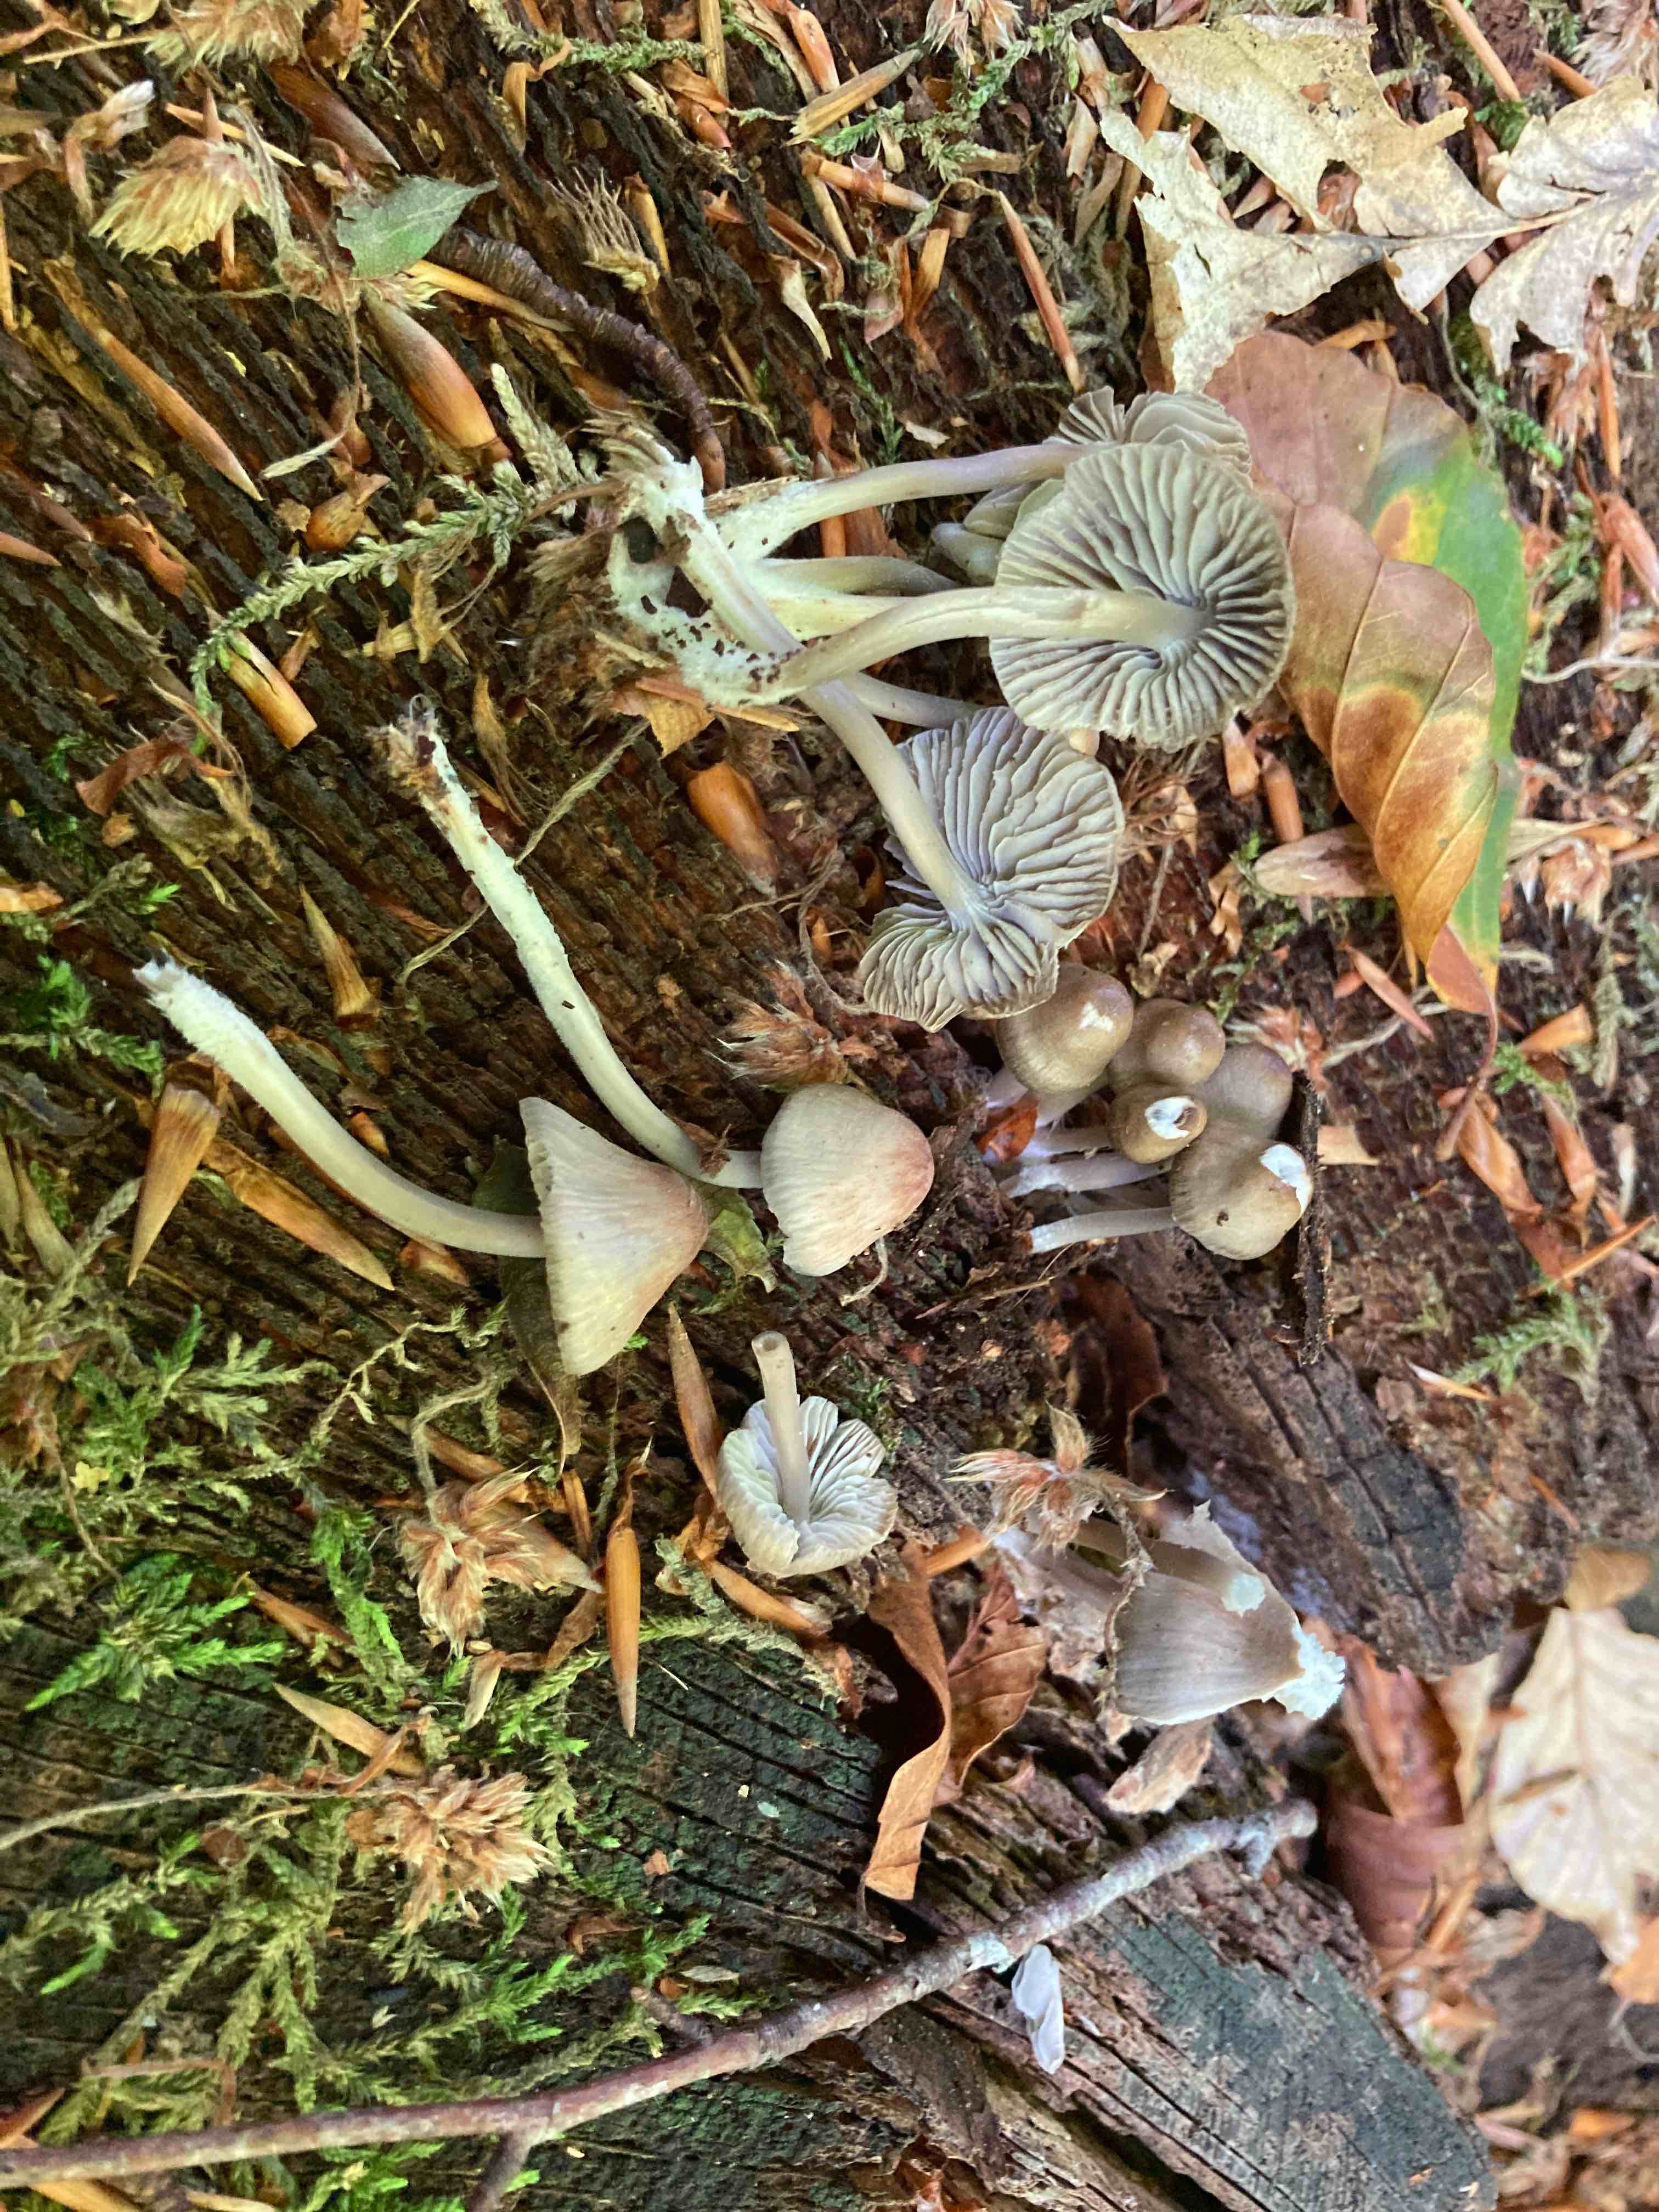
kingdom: Fungi
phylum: Basidiomycota
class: Agaricomycetes
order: Agaricales
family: Mycenaceae
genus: Mycena
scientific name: Mycena maculata
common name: rødplettet huesvamp
